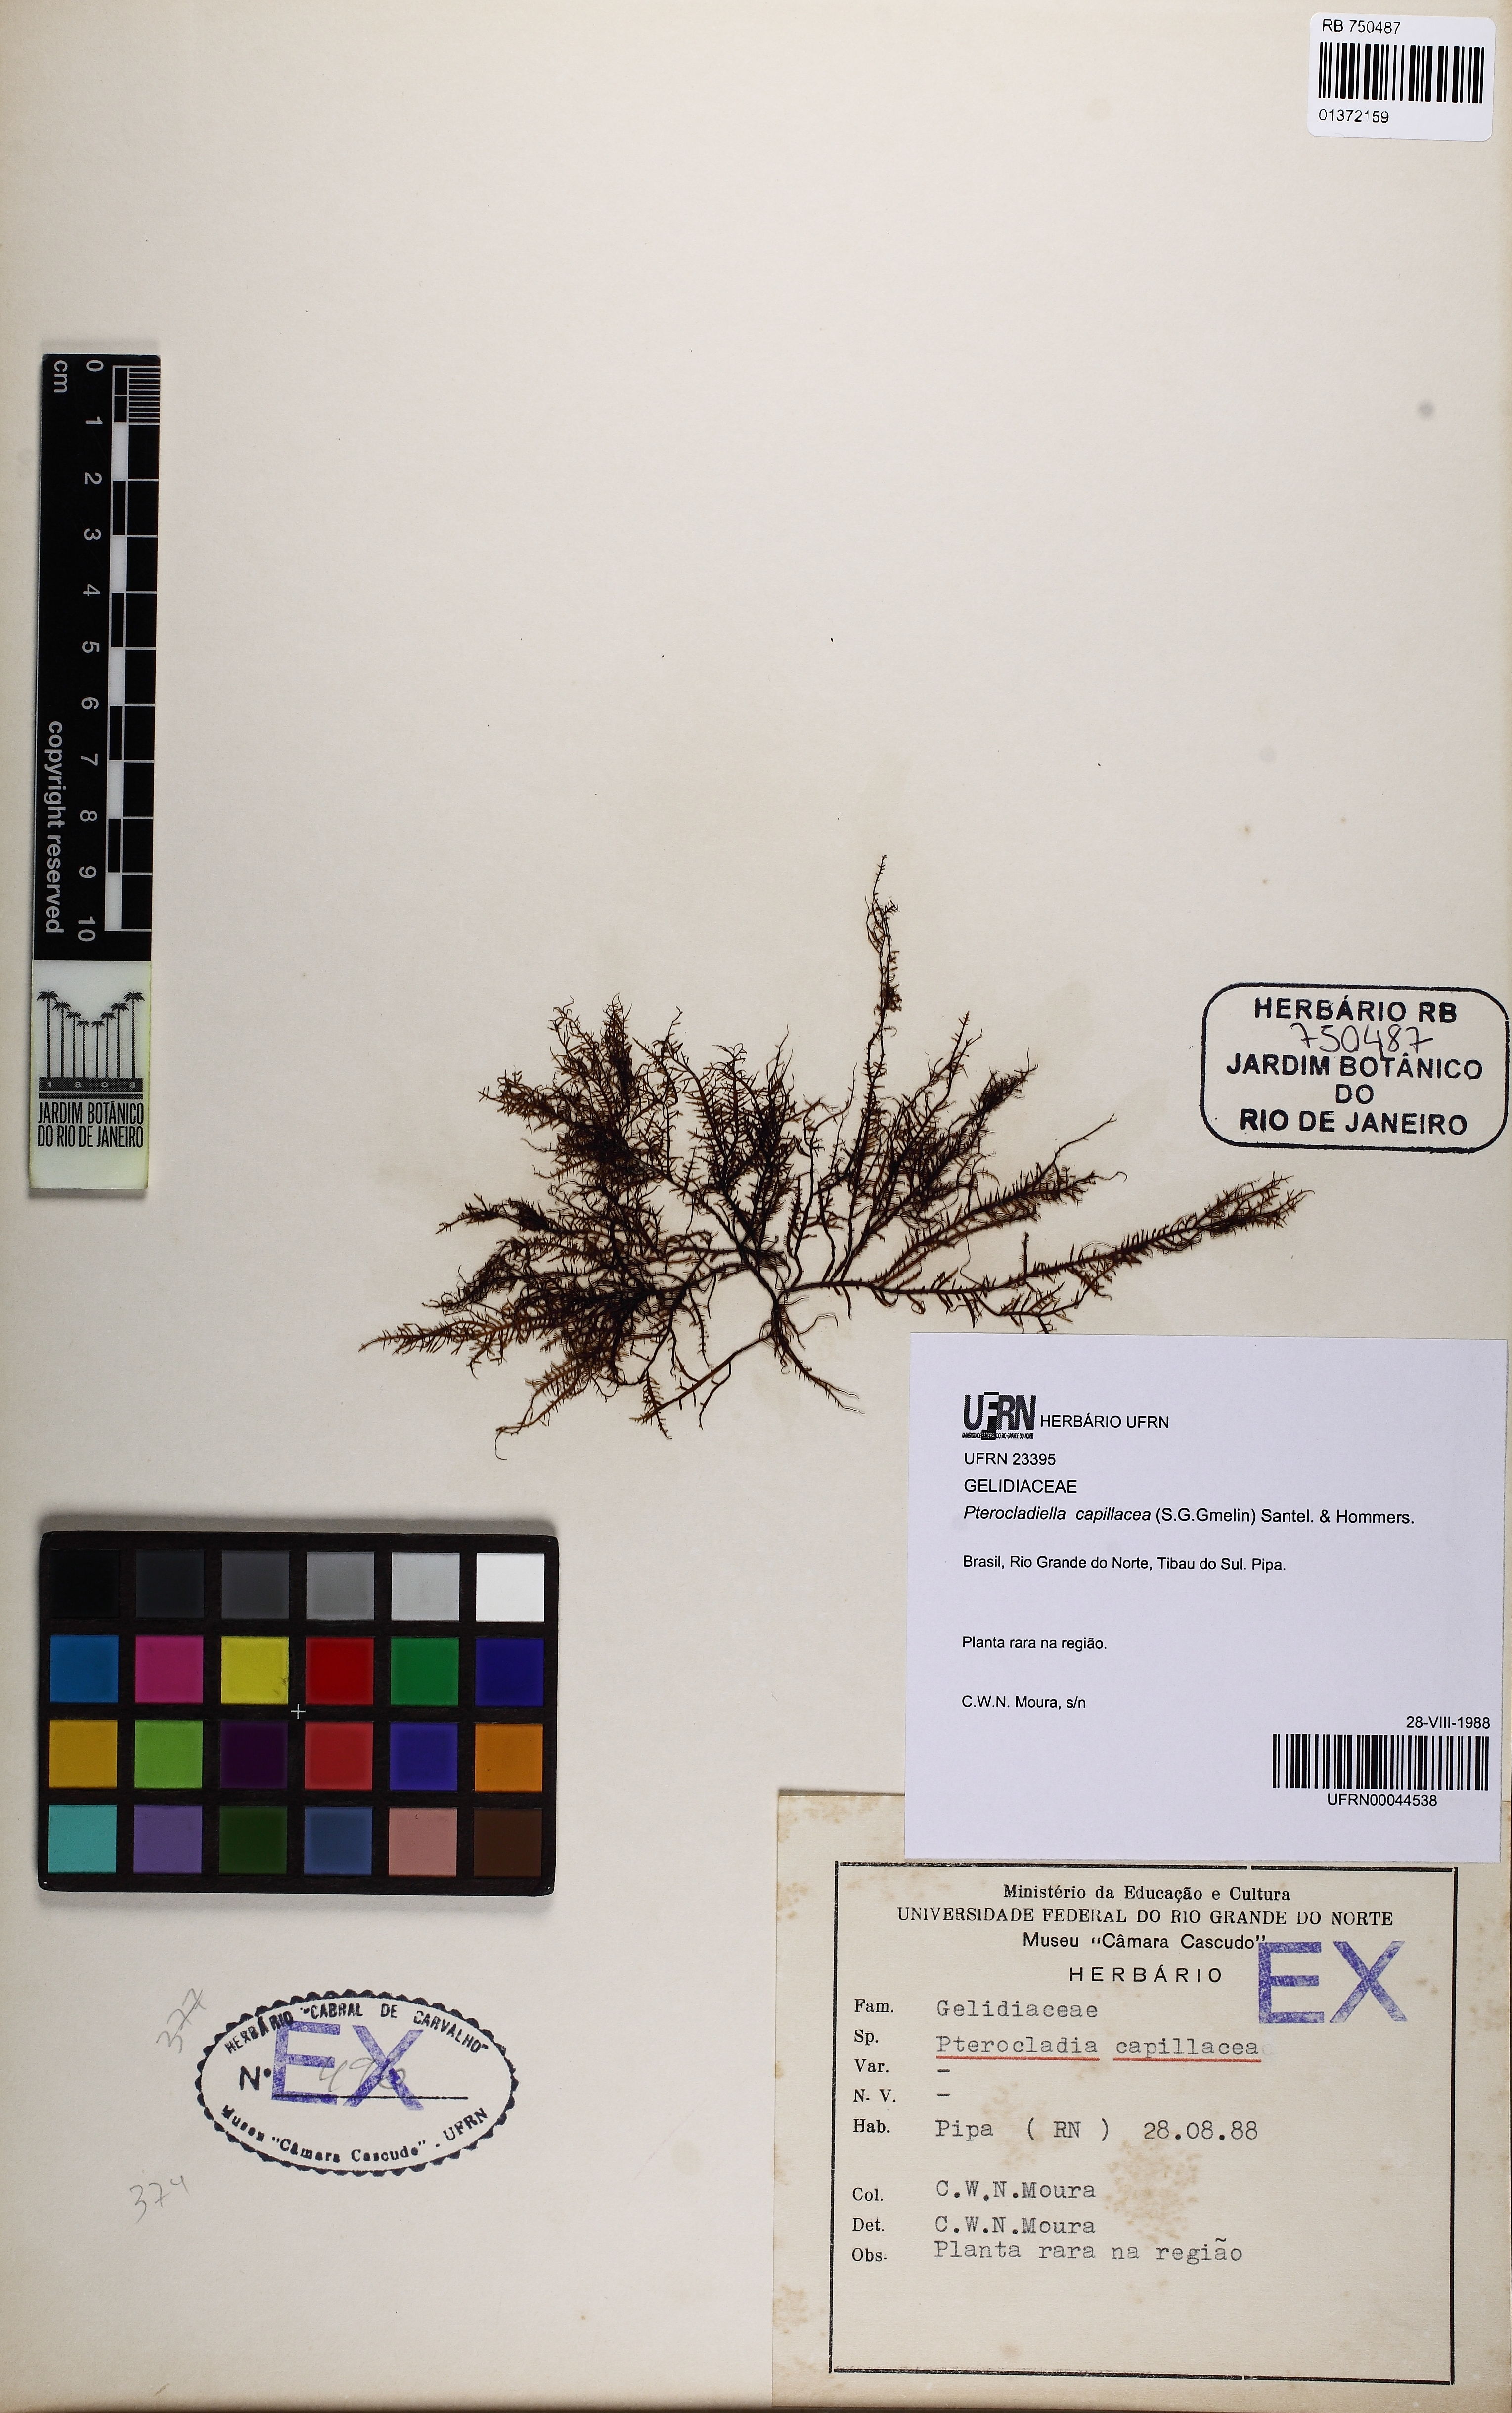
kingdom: Plantae
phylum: Rhodophyta
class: Florideophyceae
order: Gelidiales
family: Pterocladiaceae
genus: Pterocladiella
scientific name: Pterocladiella capillacea
